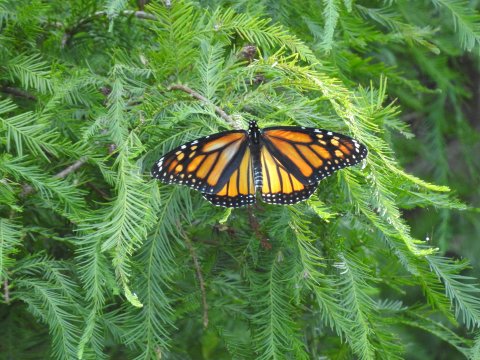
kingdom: Animalia
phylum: Arthropoda
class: Insecta
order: Lepidoptera
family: Nymphalidae
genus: Danaus
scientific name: Danaus plexippus
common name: Monarch
